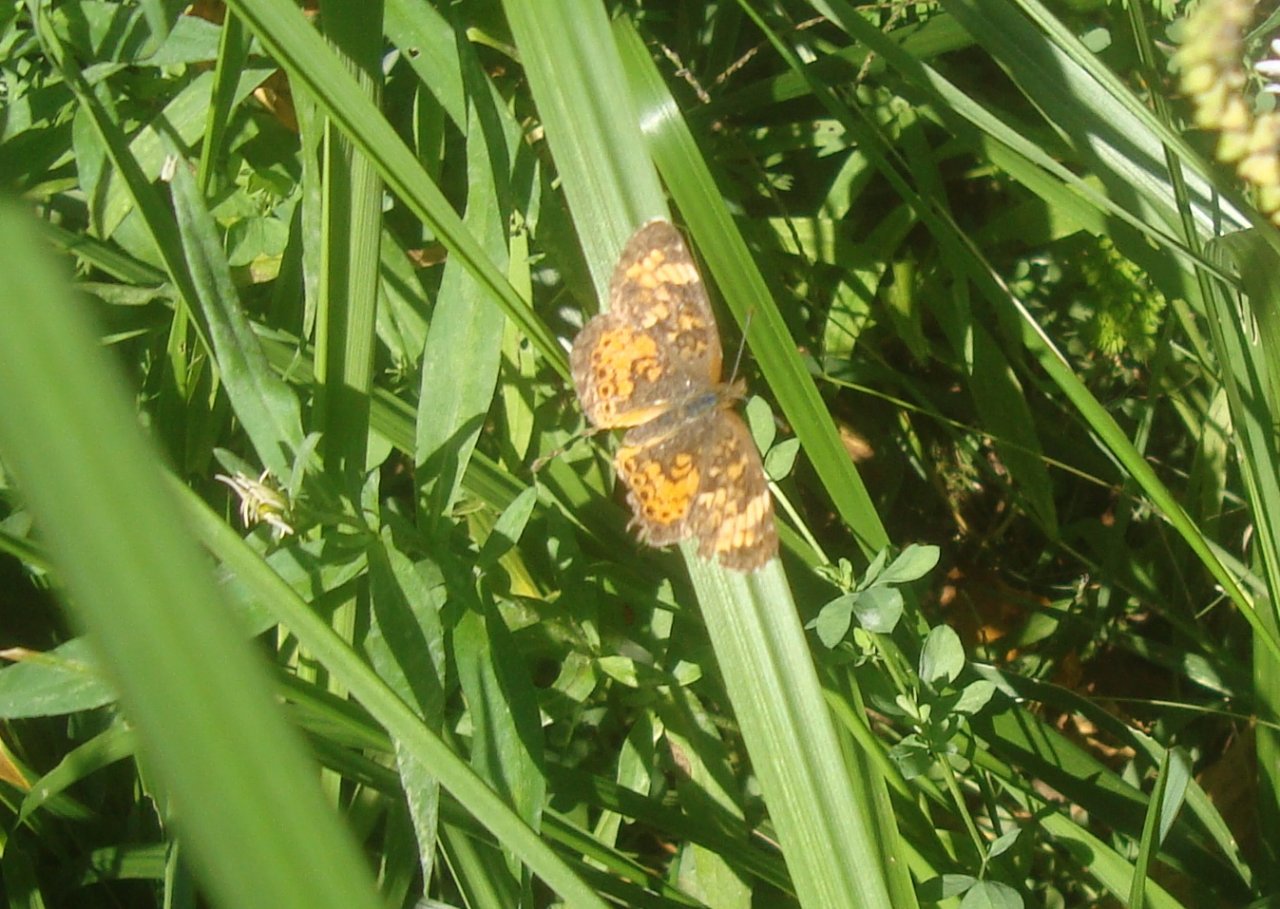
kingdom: Animalia
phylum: Arthropoda
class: Insecta
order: Lepidoptera
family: Nymphalidae
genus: Phyciodes
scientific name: Phyciodes tharos
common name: Northern Crescent
